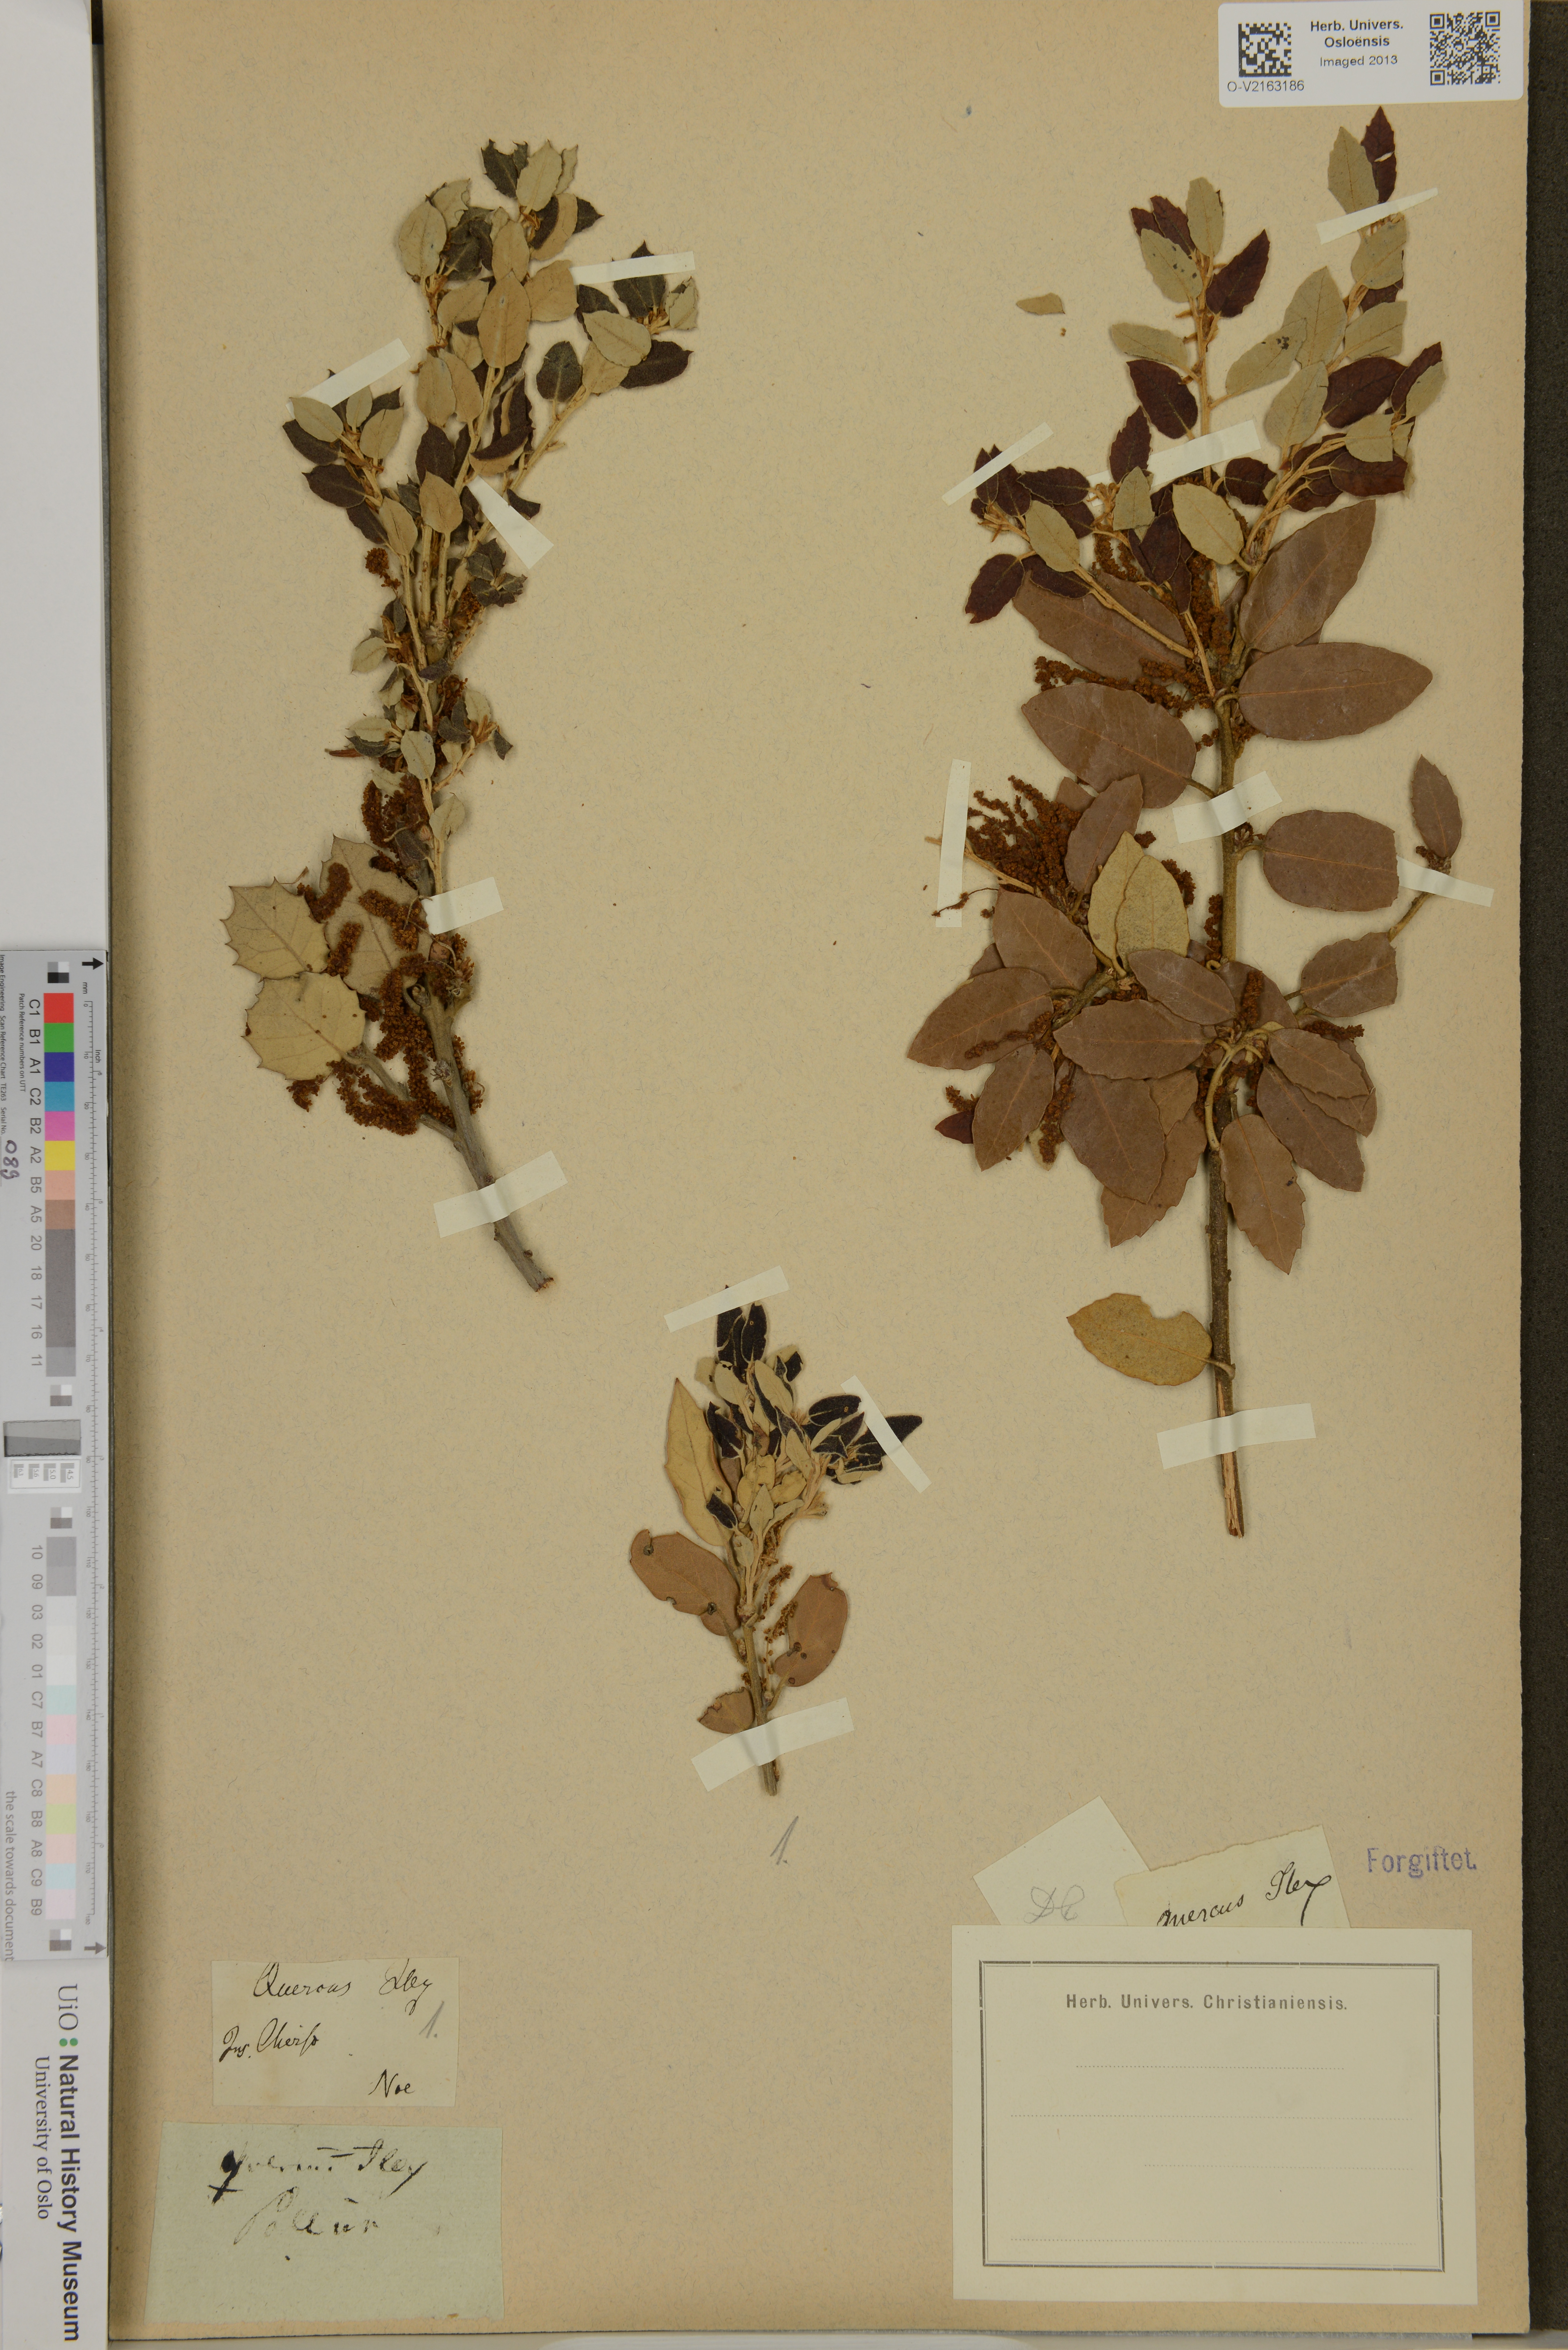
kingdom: Plantae
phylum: Tracheophyta
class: Magnoliopsida
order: Fagales
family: Fagaceae
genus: Quercus
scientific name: Quercus ilex
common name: Evergreen oak
